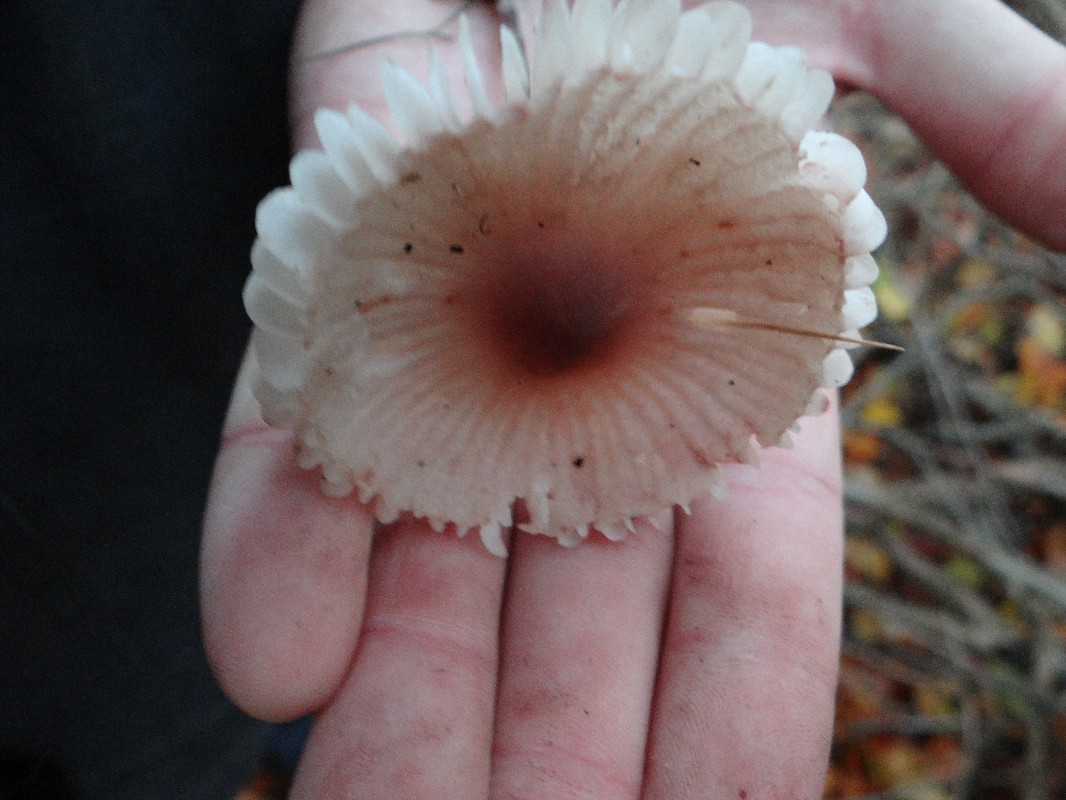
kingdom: Fungi
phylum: Basidiomycota
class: Agaricomycetes
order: Agaricales
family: Mycenaceae
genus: Mycena
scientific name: Mycena zephirus
